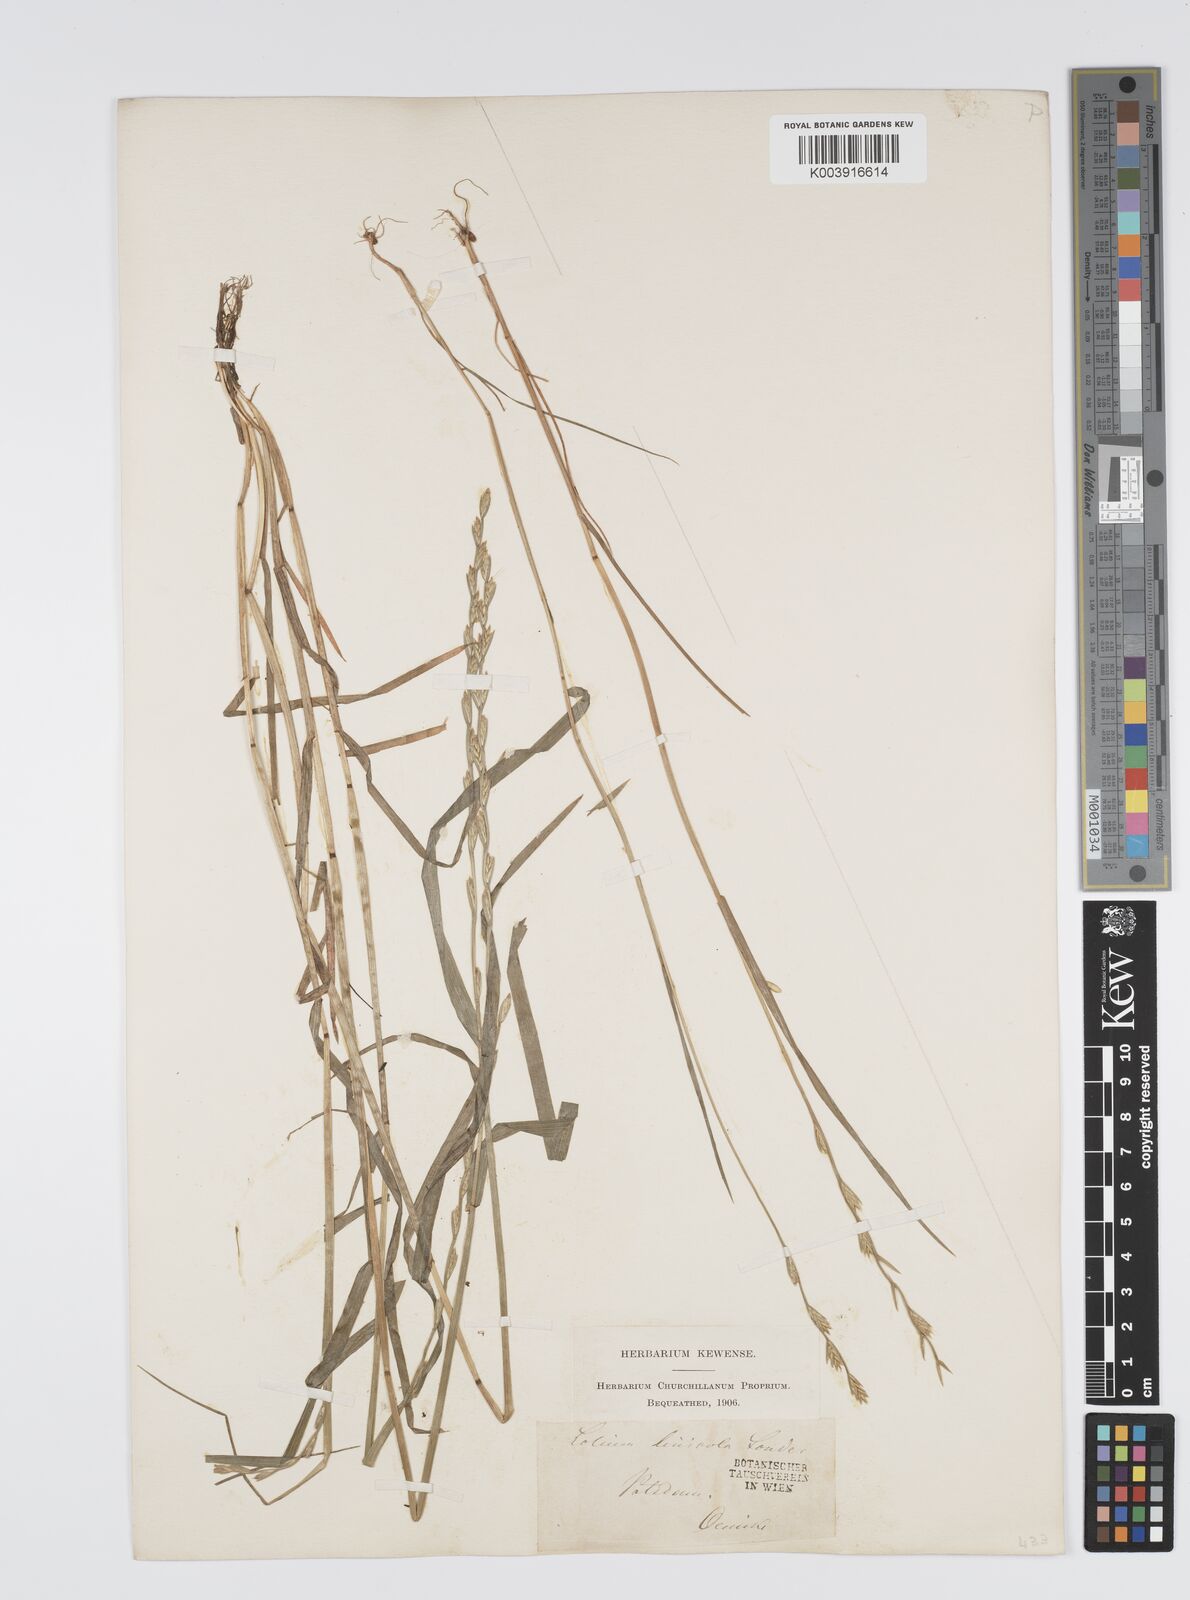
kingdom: Plantae
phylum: Tracheophyta
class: Liliopsida
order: Poales
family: Poaceae
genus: Lolium
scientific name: Lolium remotum
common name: Flaxfield rye-grass
